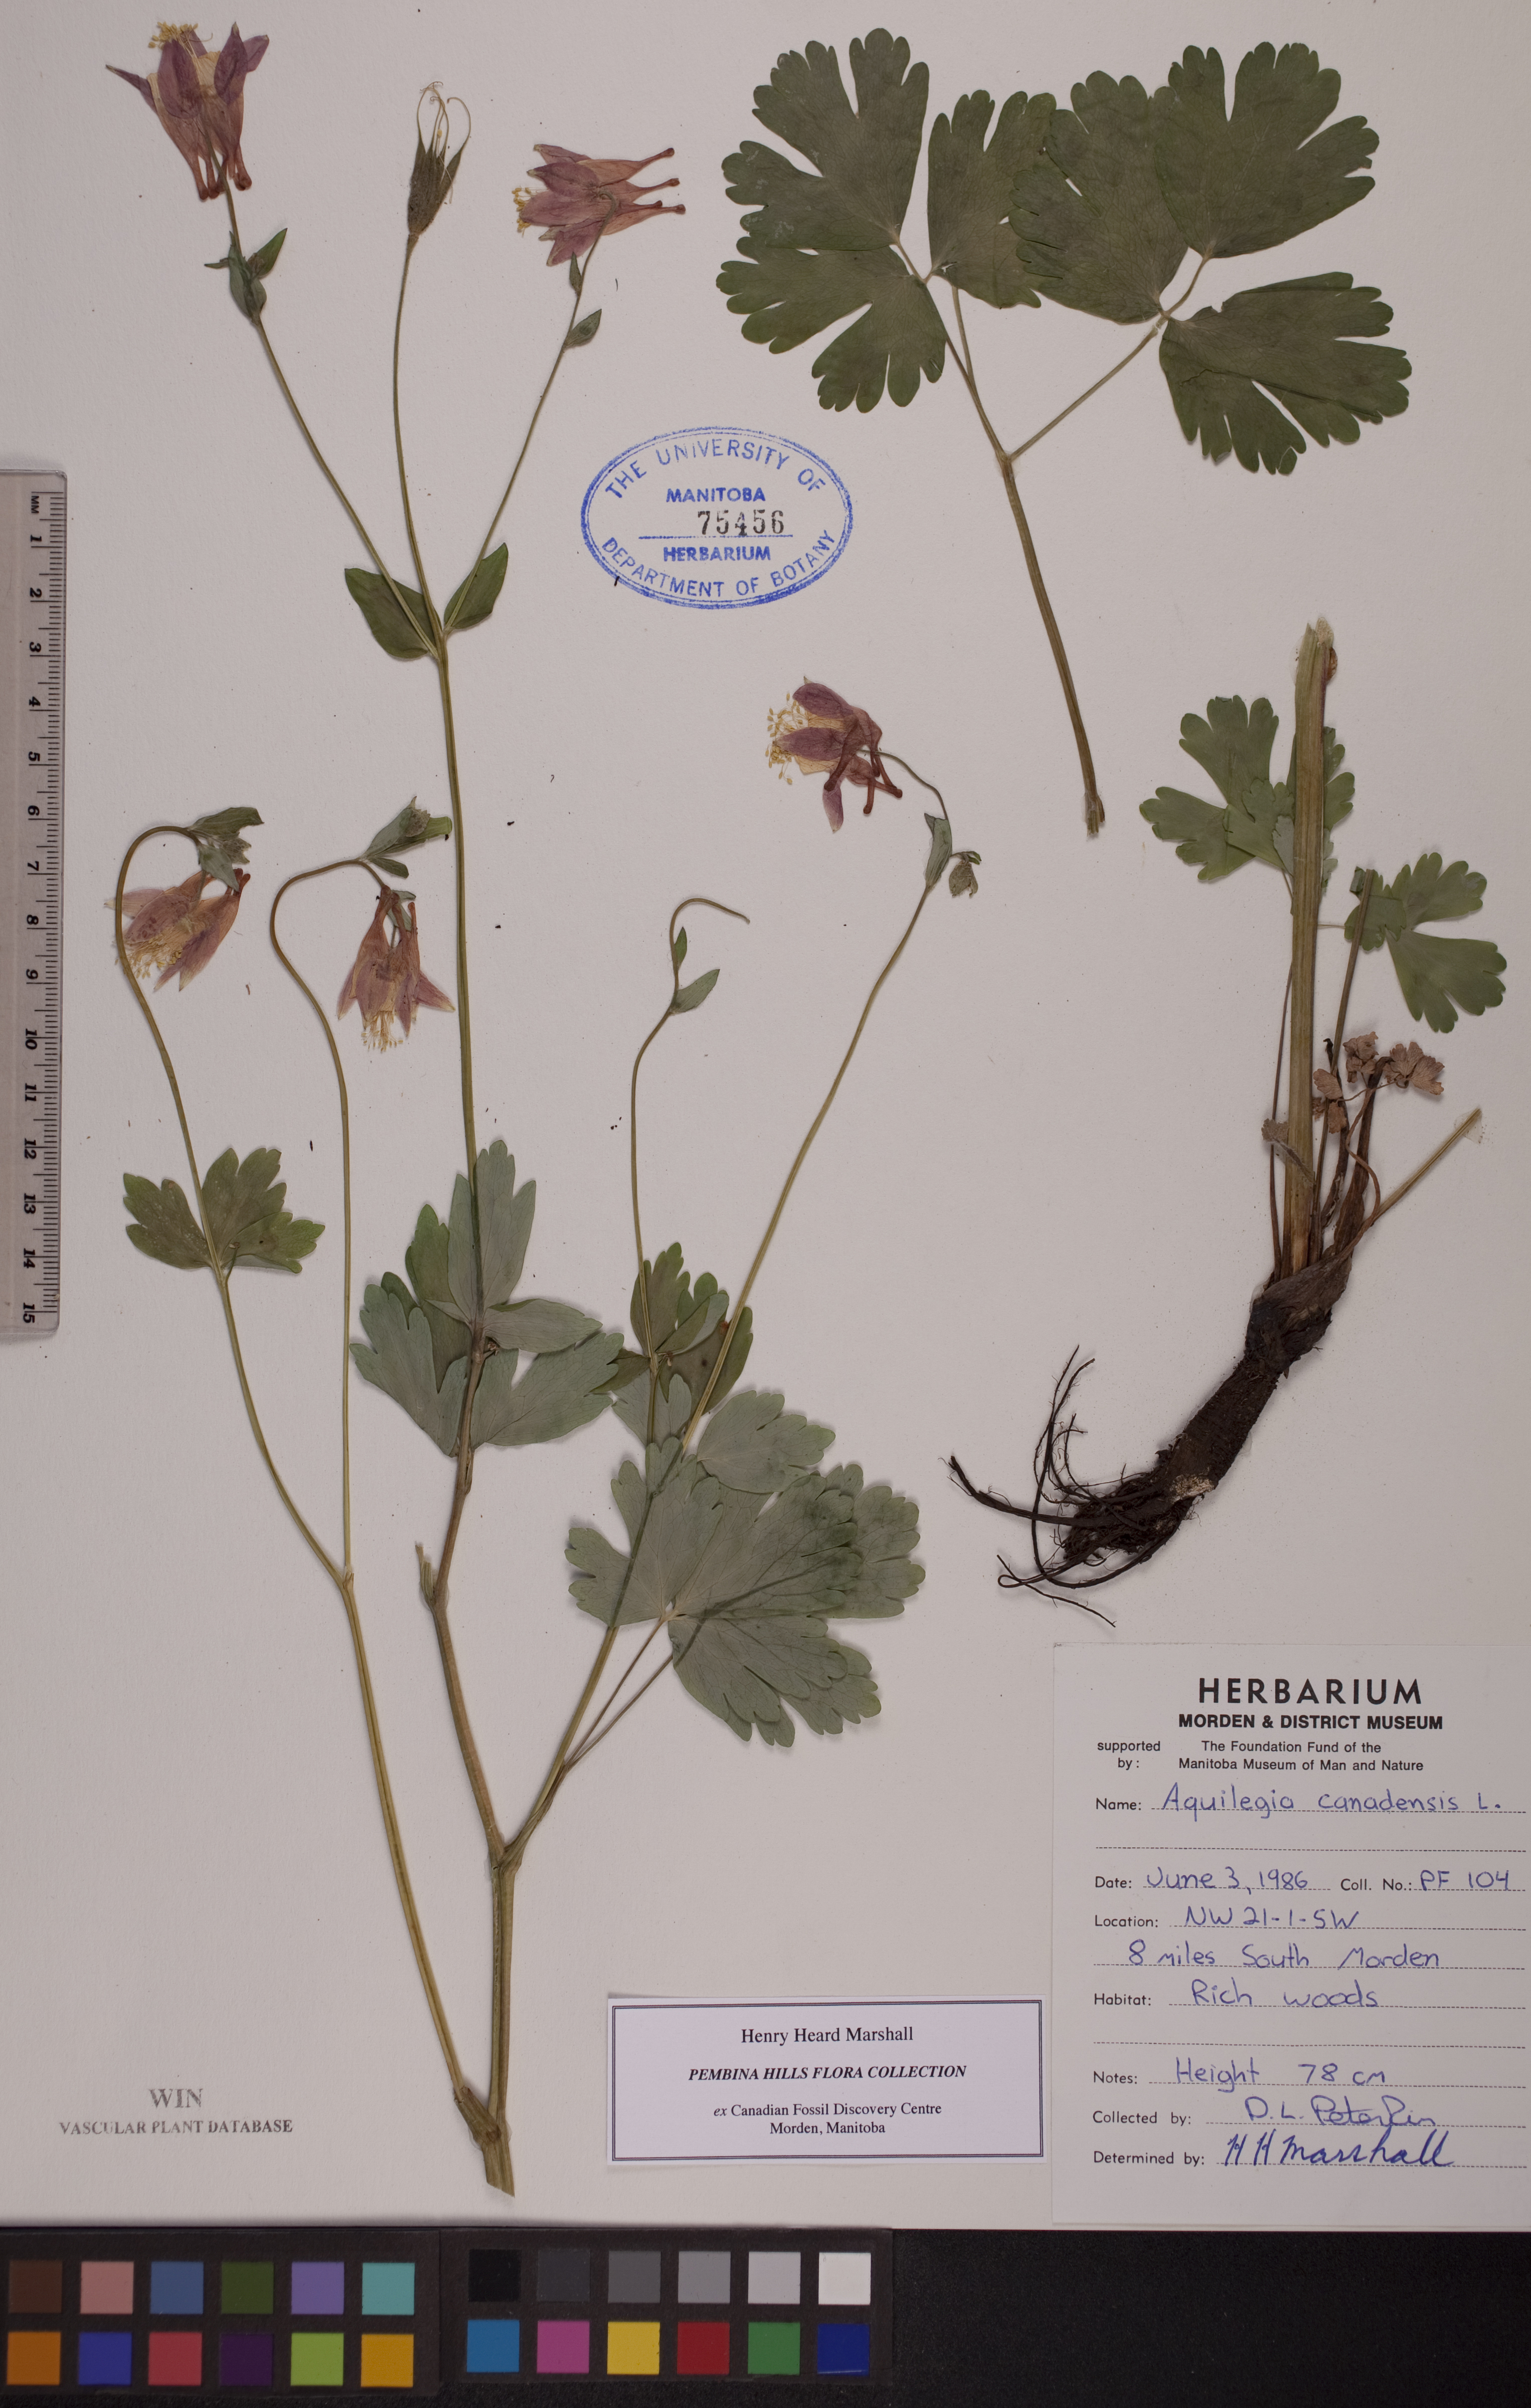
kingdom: Plantae
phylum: Tracheophyta
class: Magnoliopsida
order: Ranunculales
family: Ranunculaceae
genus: Aquilegia
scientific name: Aquilegia canadensis
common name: American columbine
